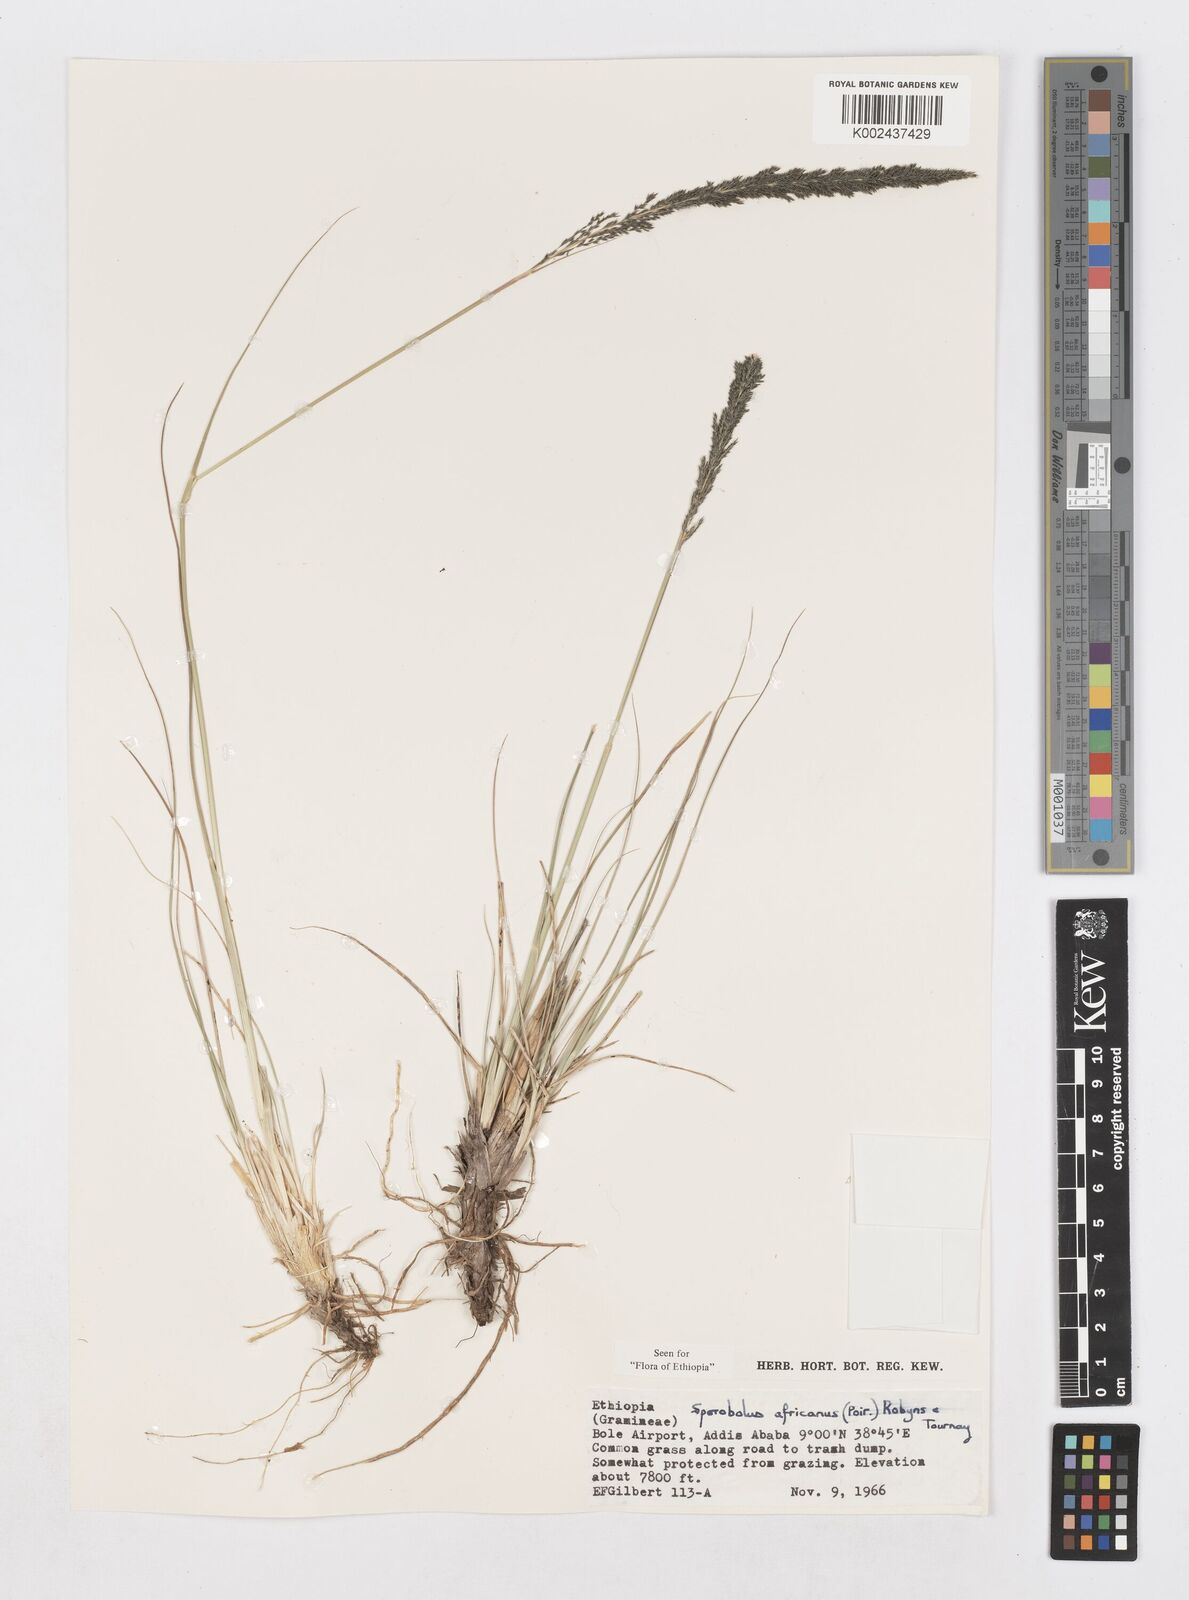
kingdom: Plantae
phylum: Tracheophyta
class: Liliopsida
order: Poales
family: Poaceae
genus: Sporobolus
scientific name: Sporobolus africanus
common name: African dropseed
